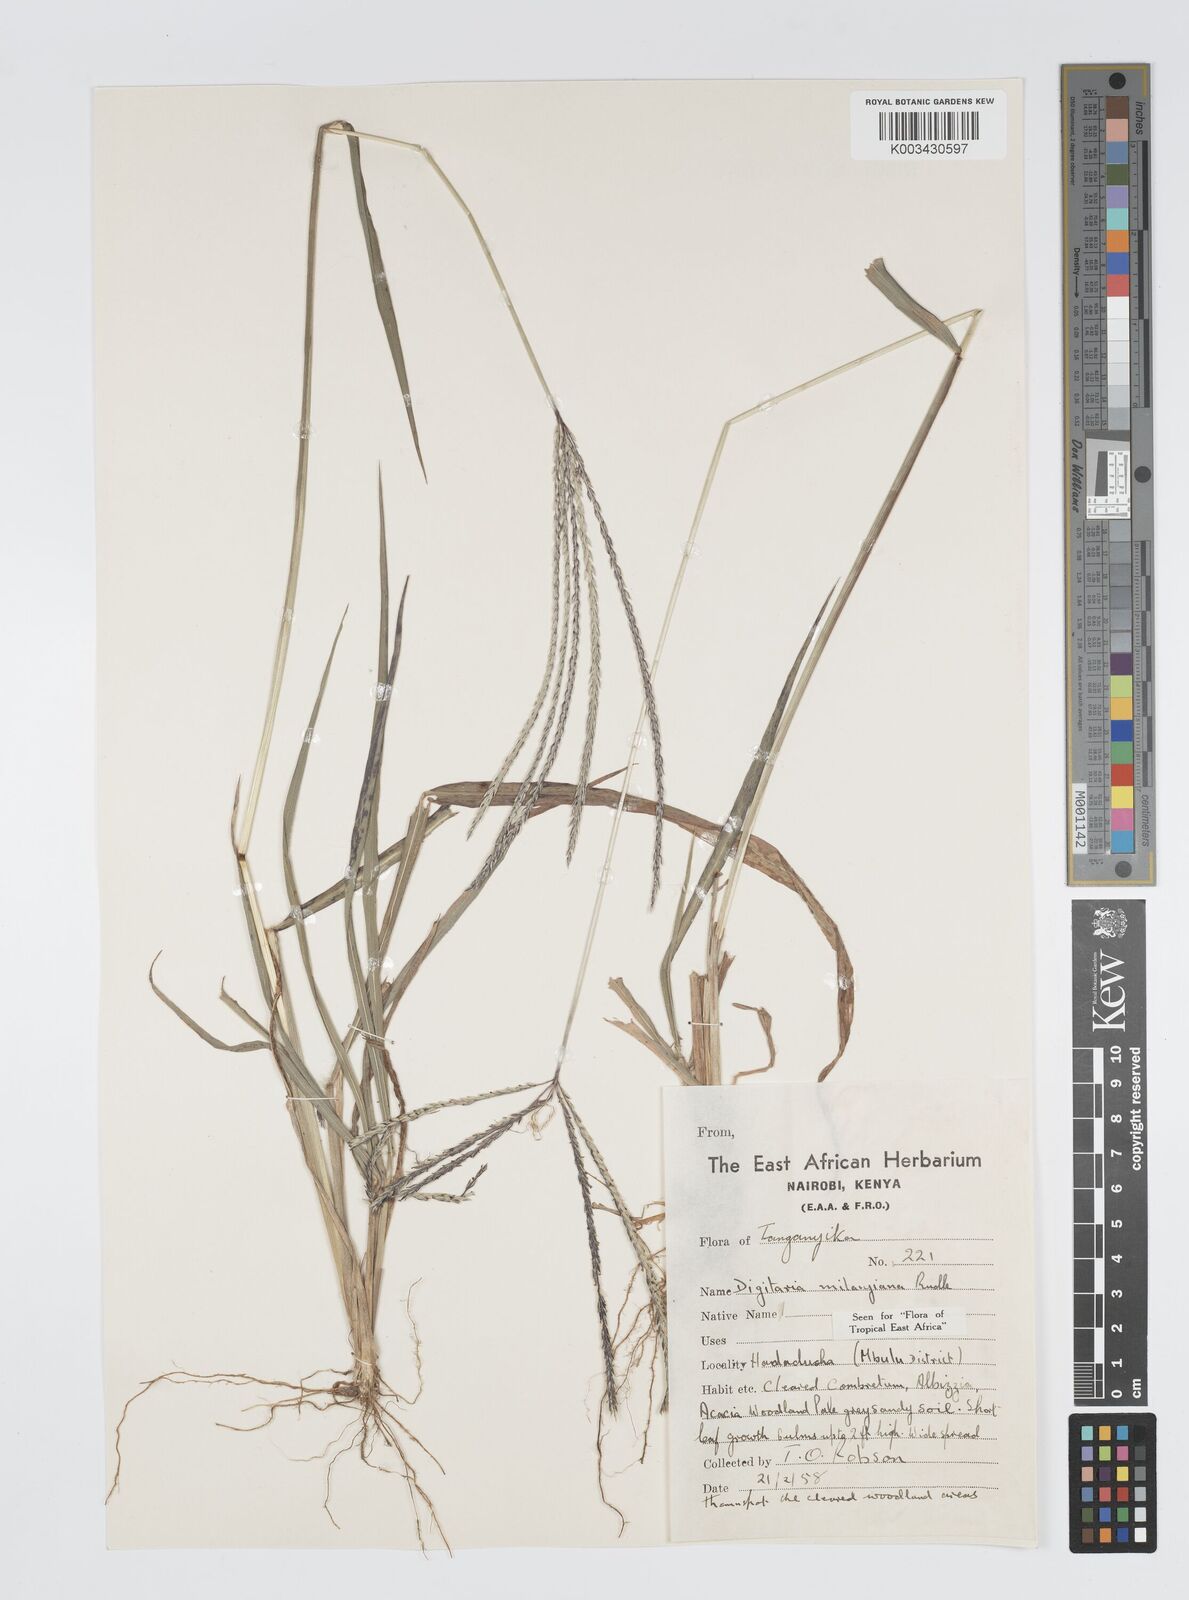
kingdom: Plantae
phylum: Tracheophyta
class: Liliopsida
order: Poales
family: Poaceae
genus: Digitaria
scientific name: Digitaria milanjiana
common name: Madagascar crabgrass
